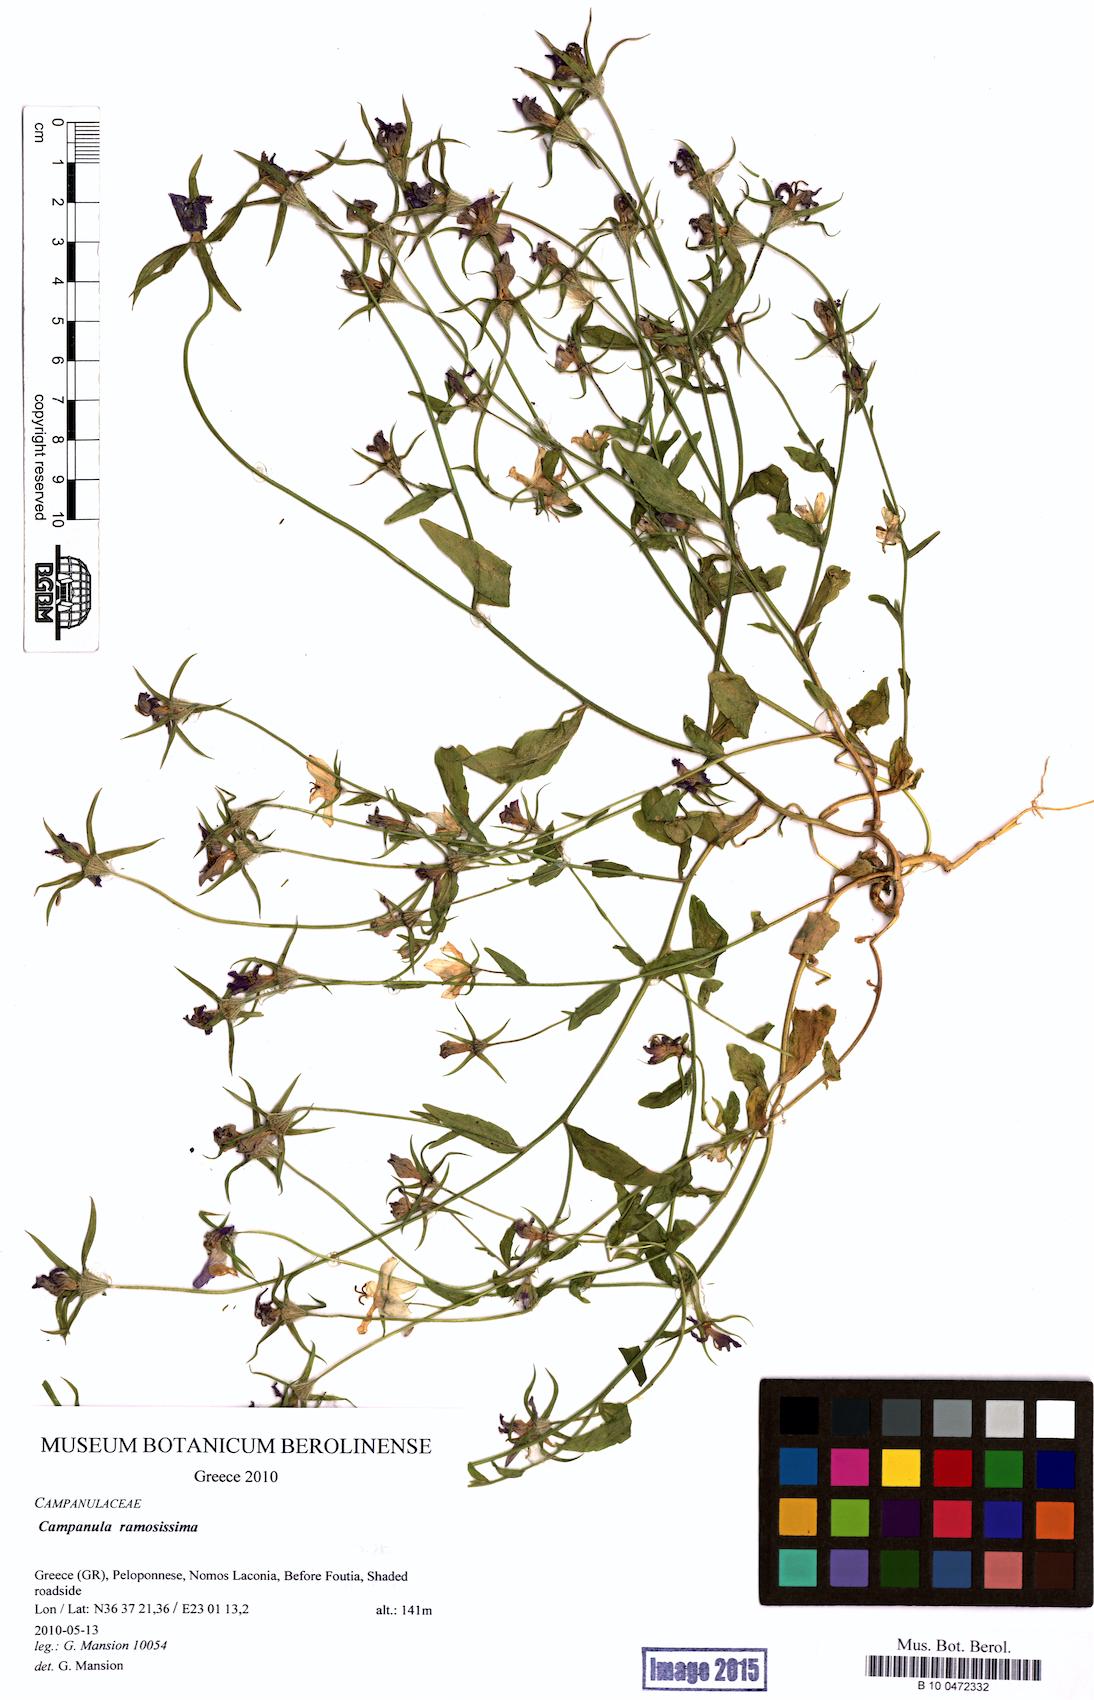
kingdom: Plantae
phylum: Tracheophyta
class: Magnoliopsida
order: Asterales
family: Campanulaceae
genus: Campanula
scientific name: Campanula ramosissima
